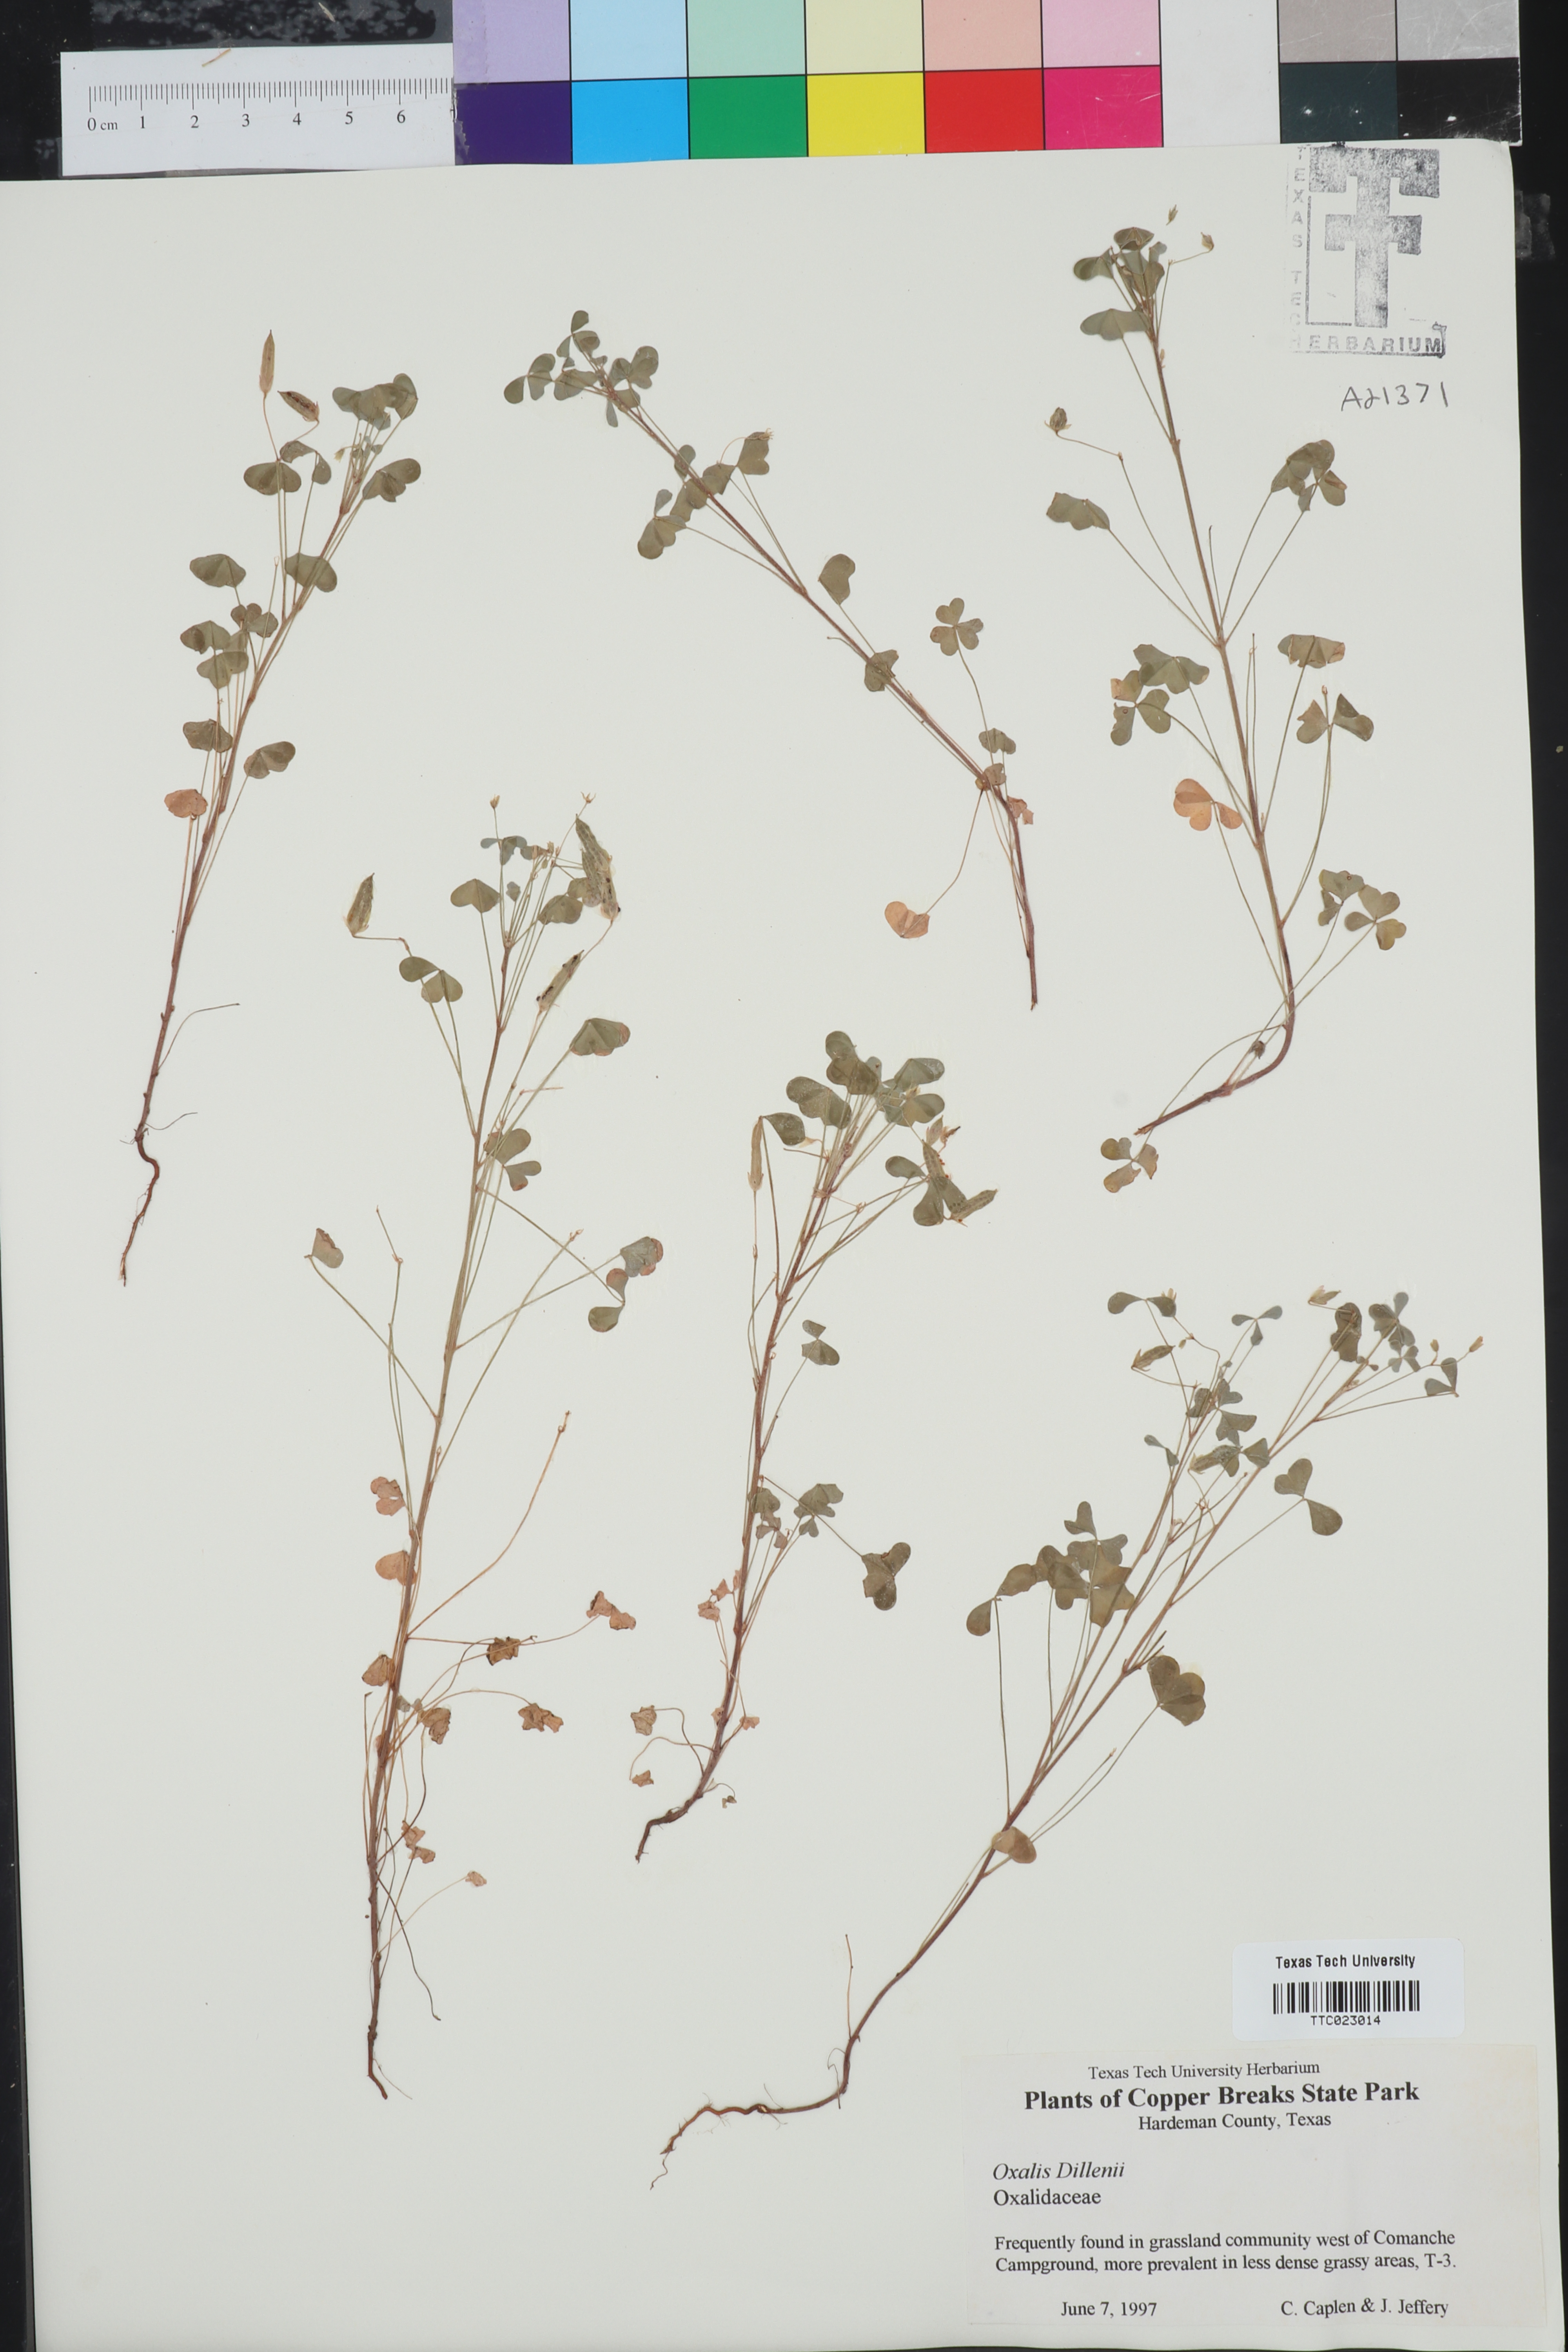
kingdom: Plantae
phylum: Tracheophyta
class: Magnoliopsida
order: Oxalidales
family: Oxalidaceae
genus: Oxalis
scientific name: Oxalis dillenii
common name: Sussex yellow-sorrel
